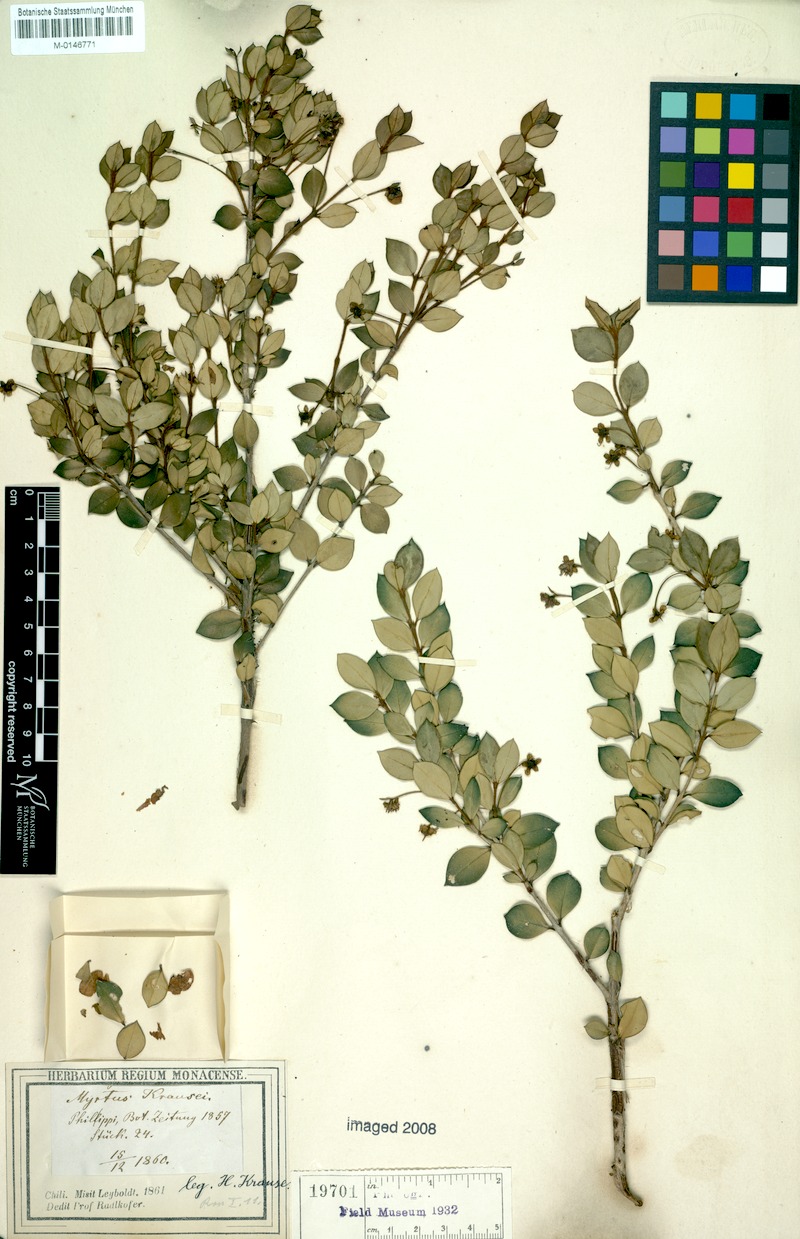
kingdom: Plantae
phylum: Tracheophyta
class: Magnoliopsida
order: Myrtales
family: Myrtaceae
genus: Ugni
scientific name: Ugni candollei
